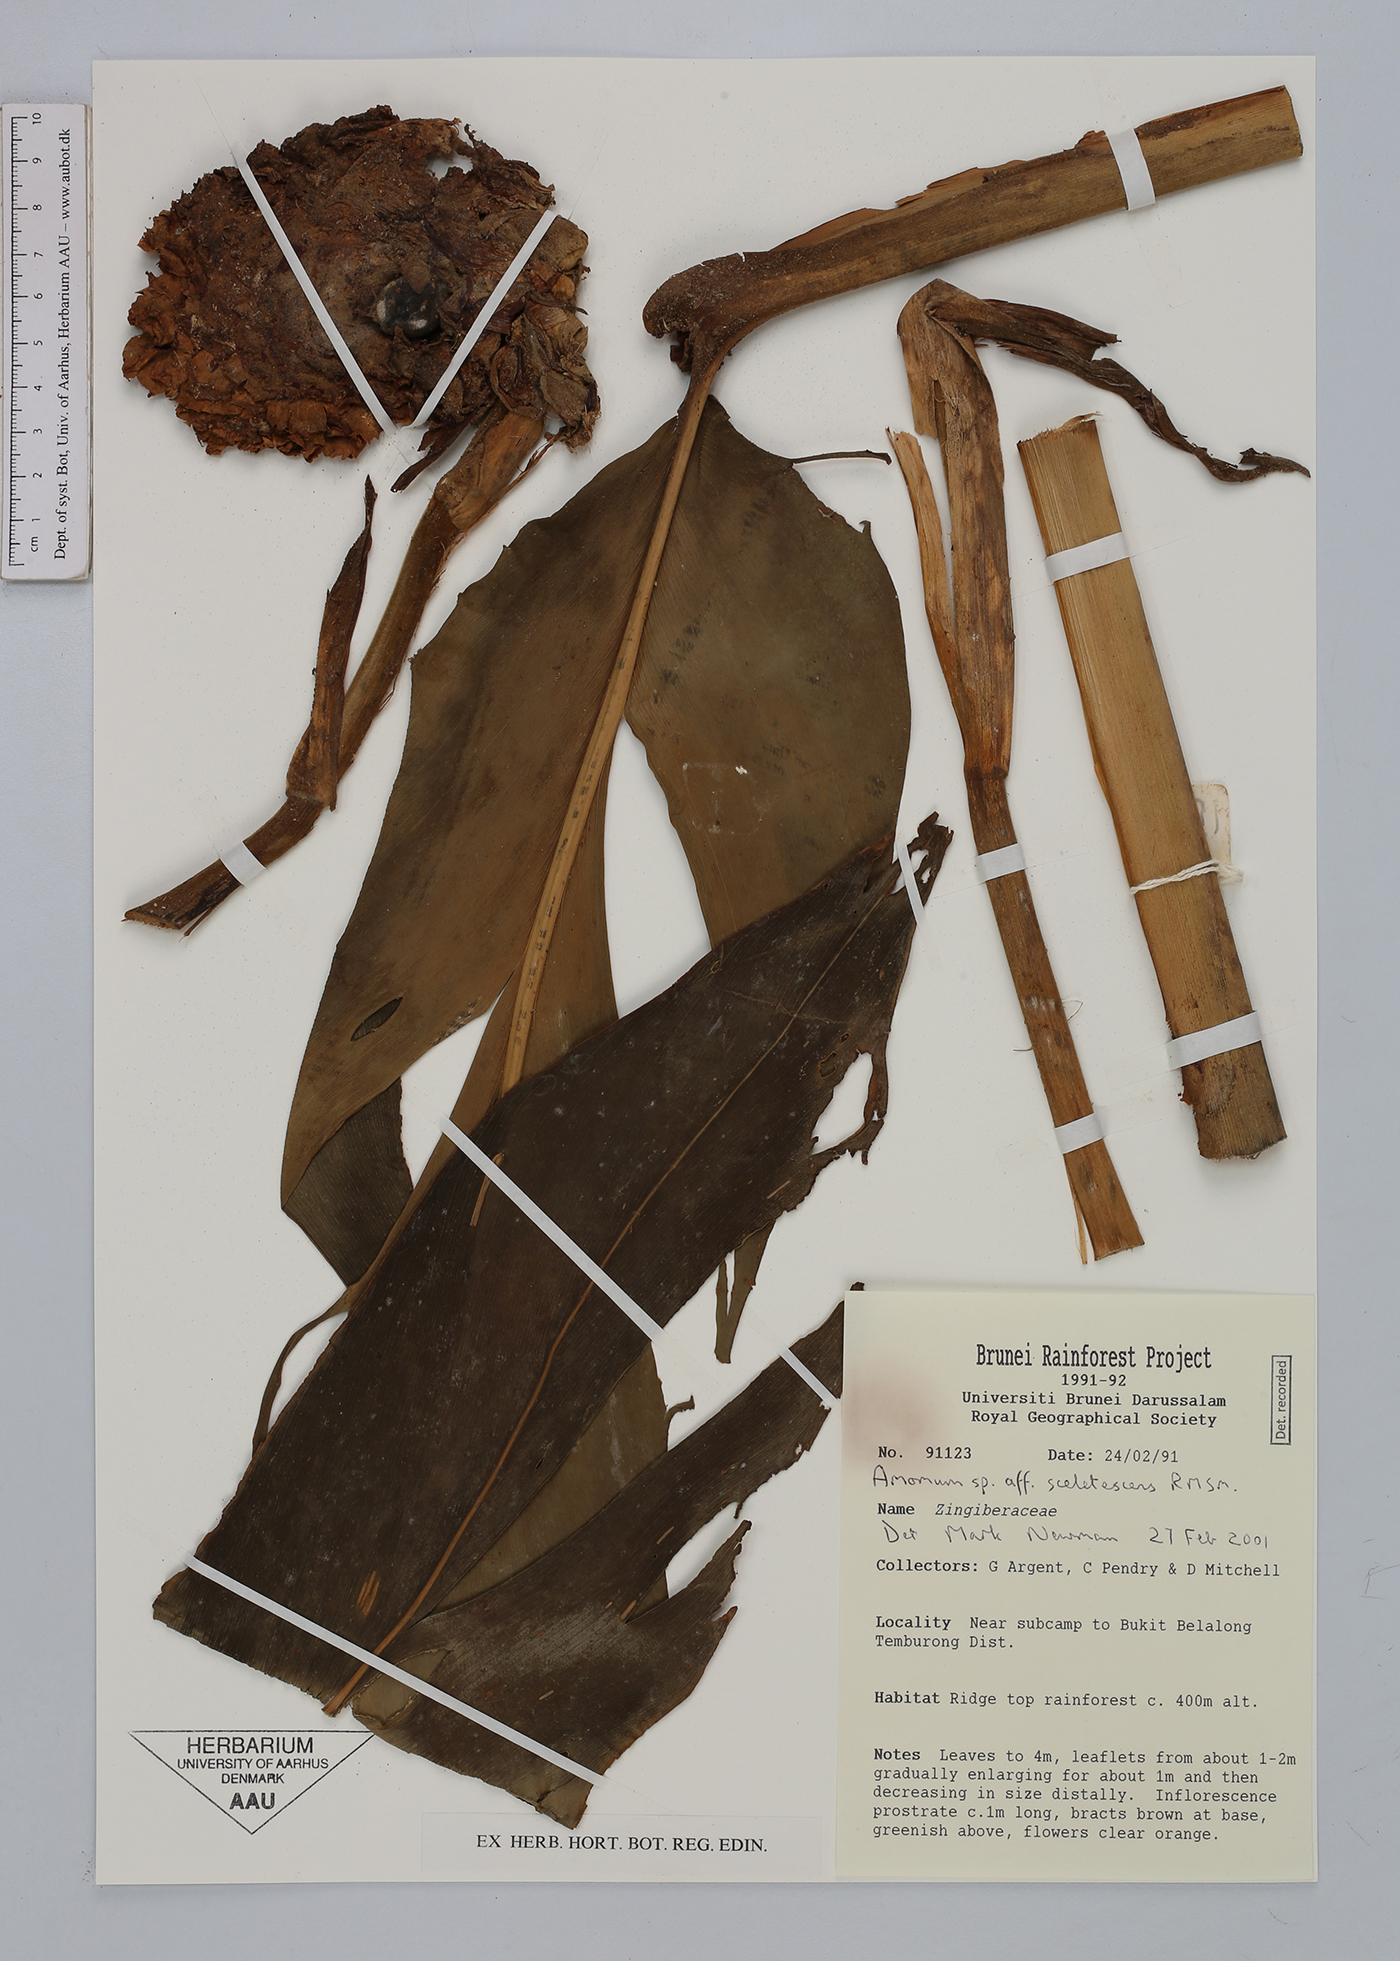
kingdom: Plantae
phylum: Tracheophyta
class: Liliopsida
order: Zingiberales
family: Zingiberaceae
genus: Meistera
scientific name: Meistera sceletescens
